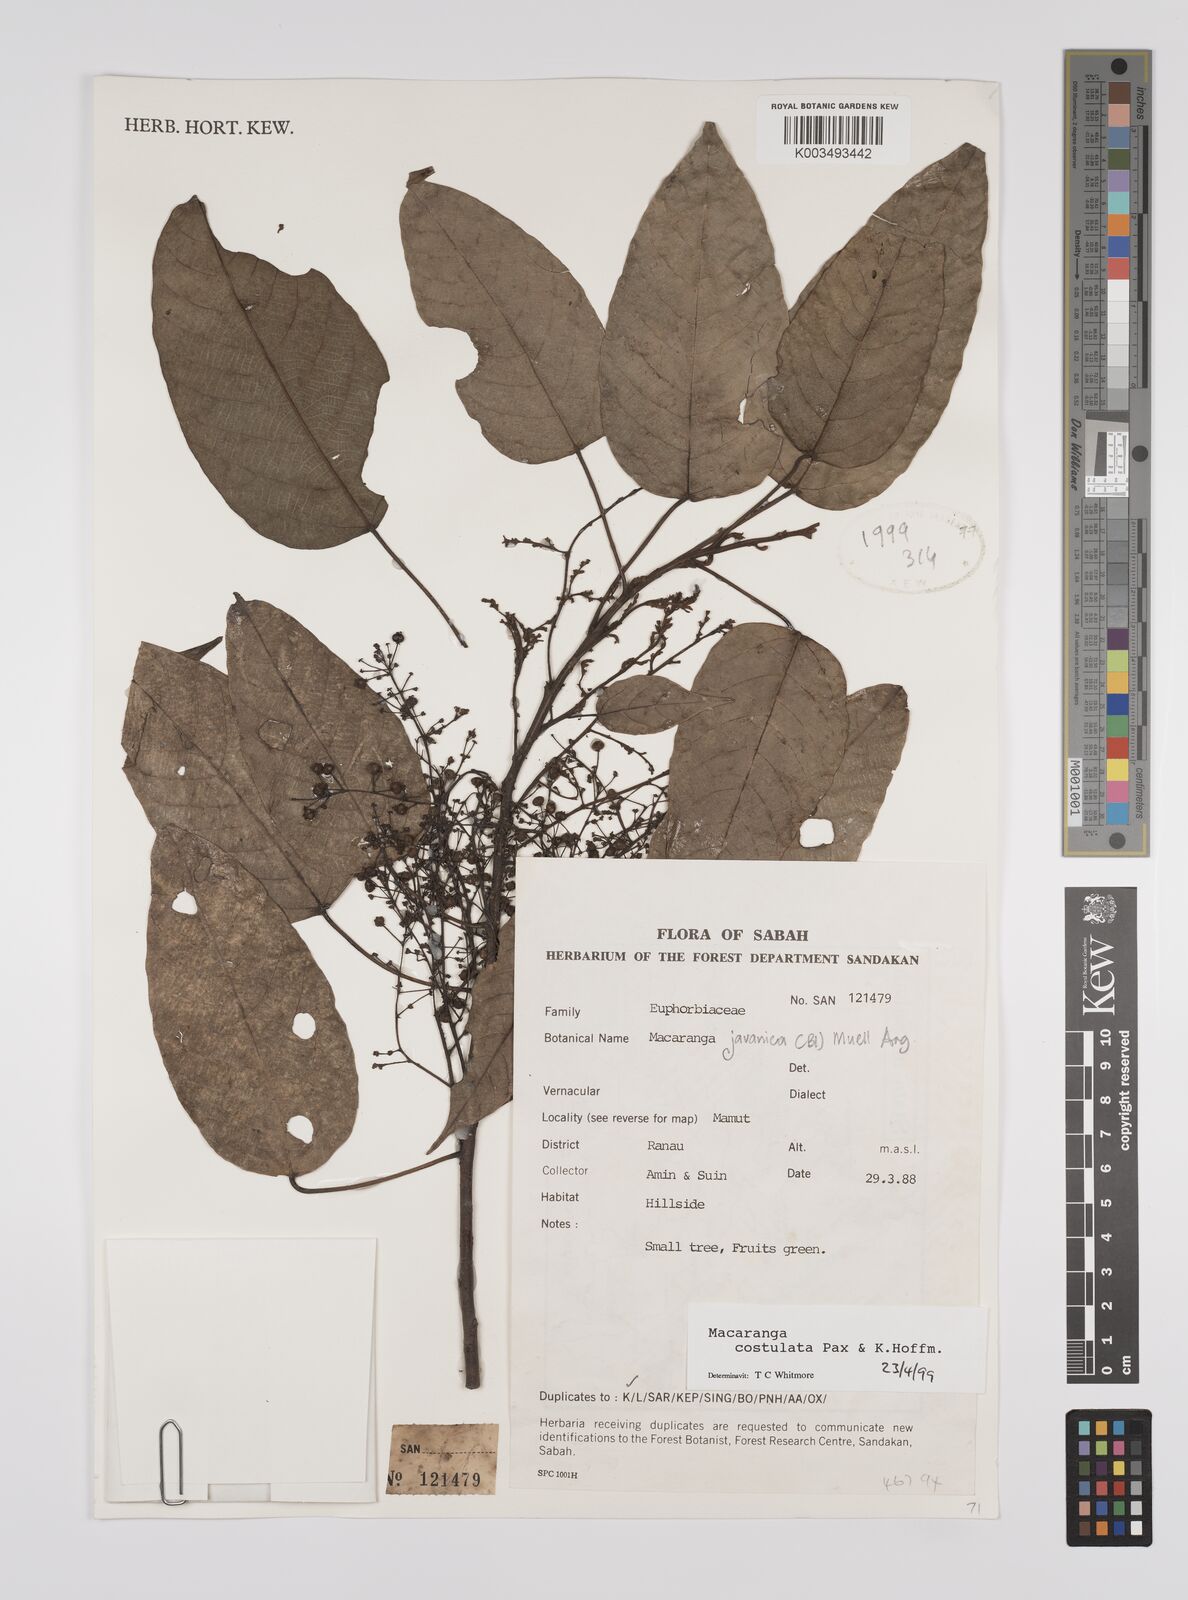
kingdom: Plantae
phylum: Tracheophyta
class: Magnoliopsida
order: Malpighiales
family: Euphorbiaceae
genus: Macaranga
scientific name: Macaranga costulata
